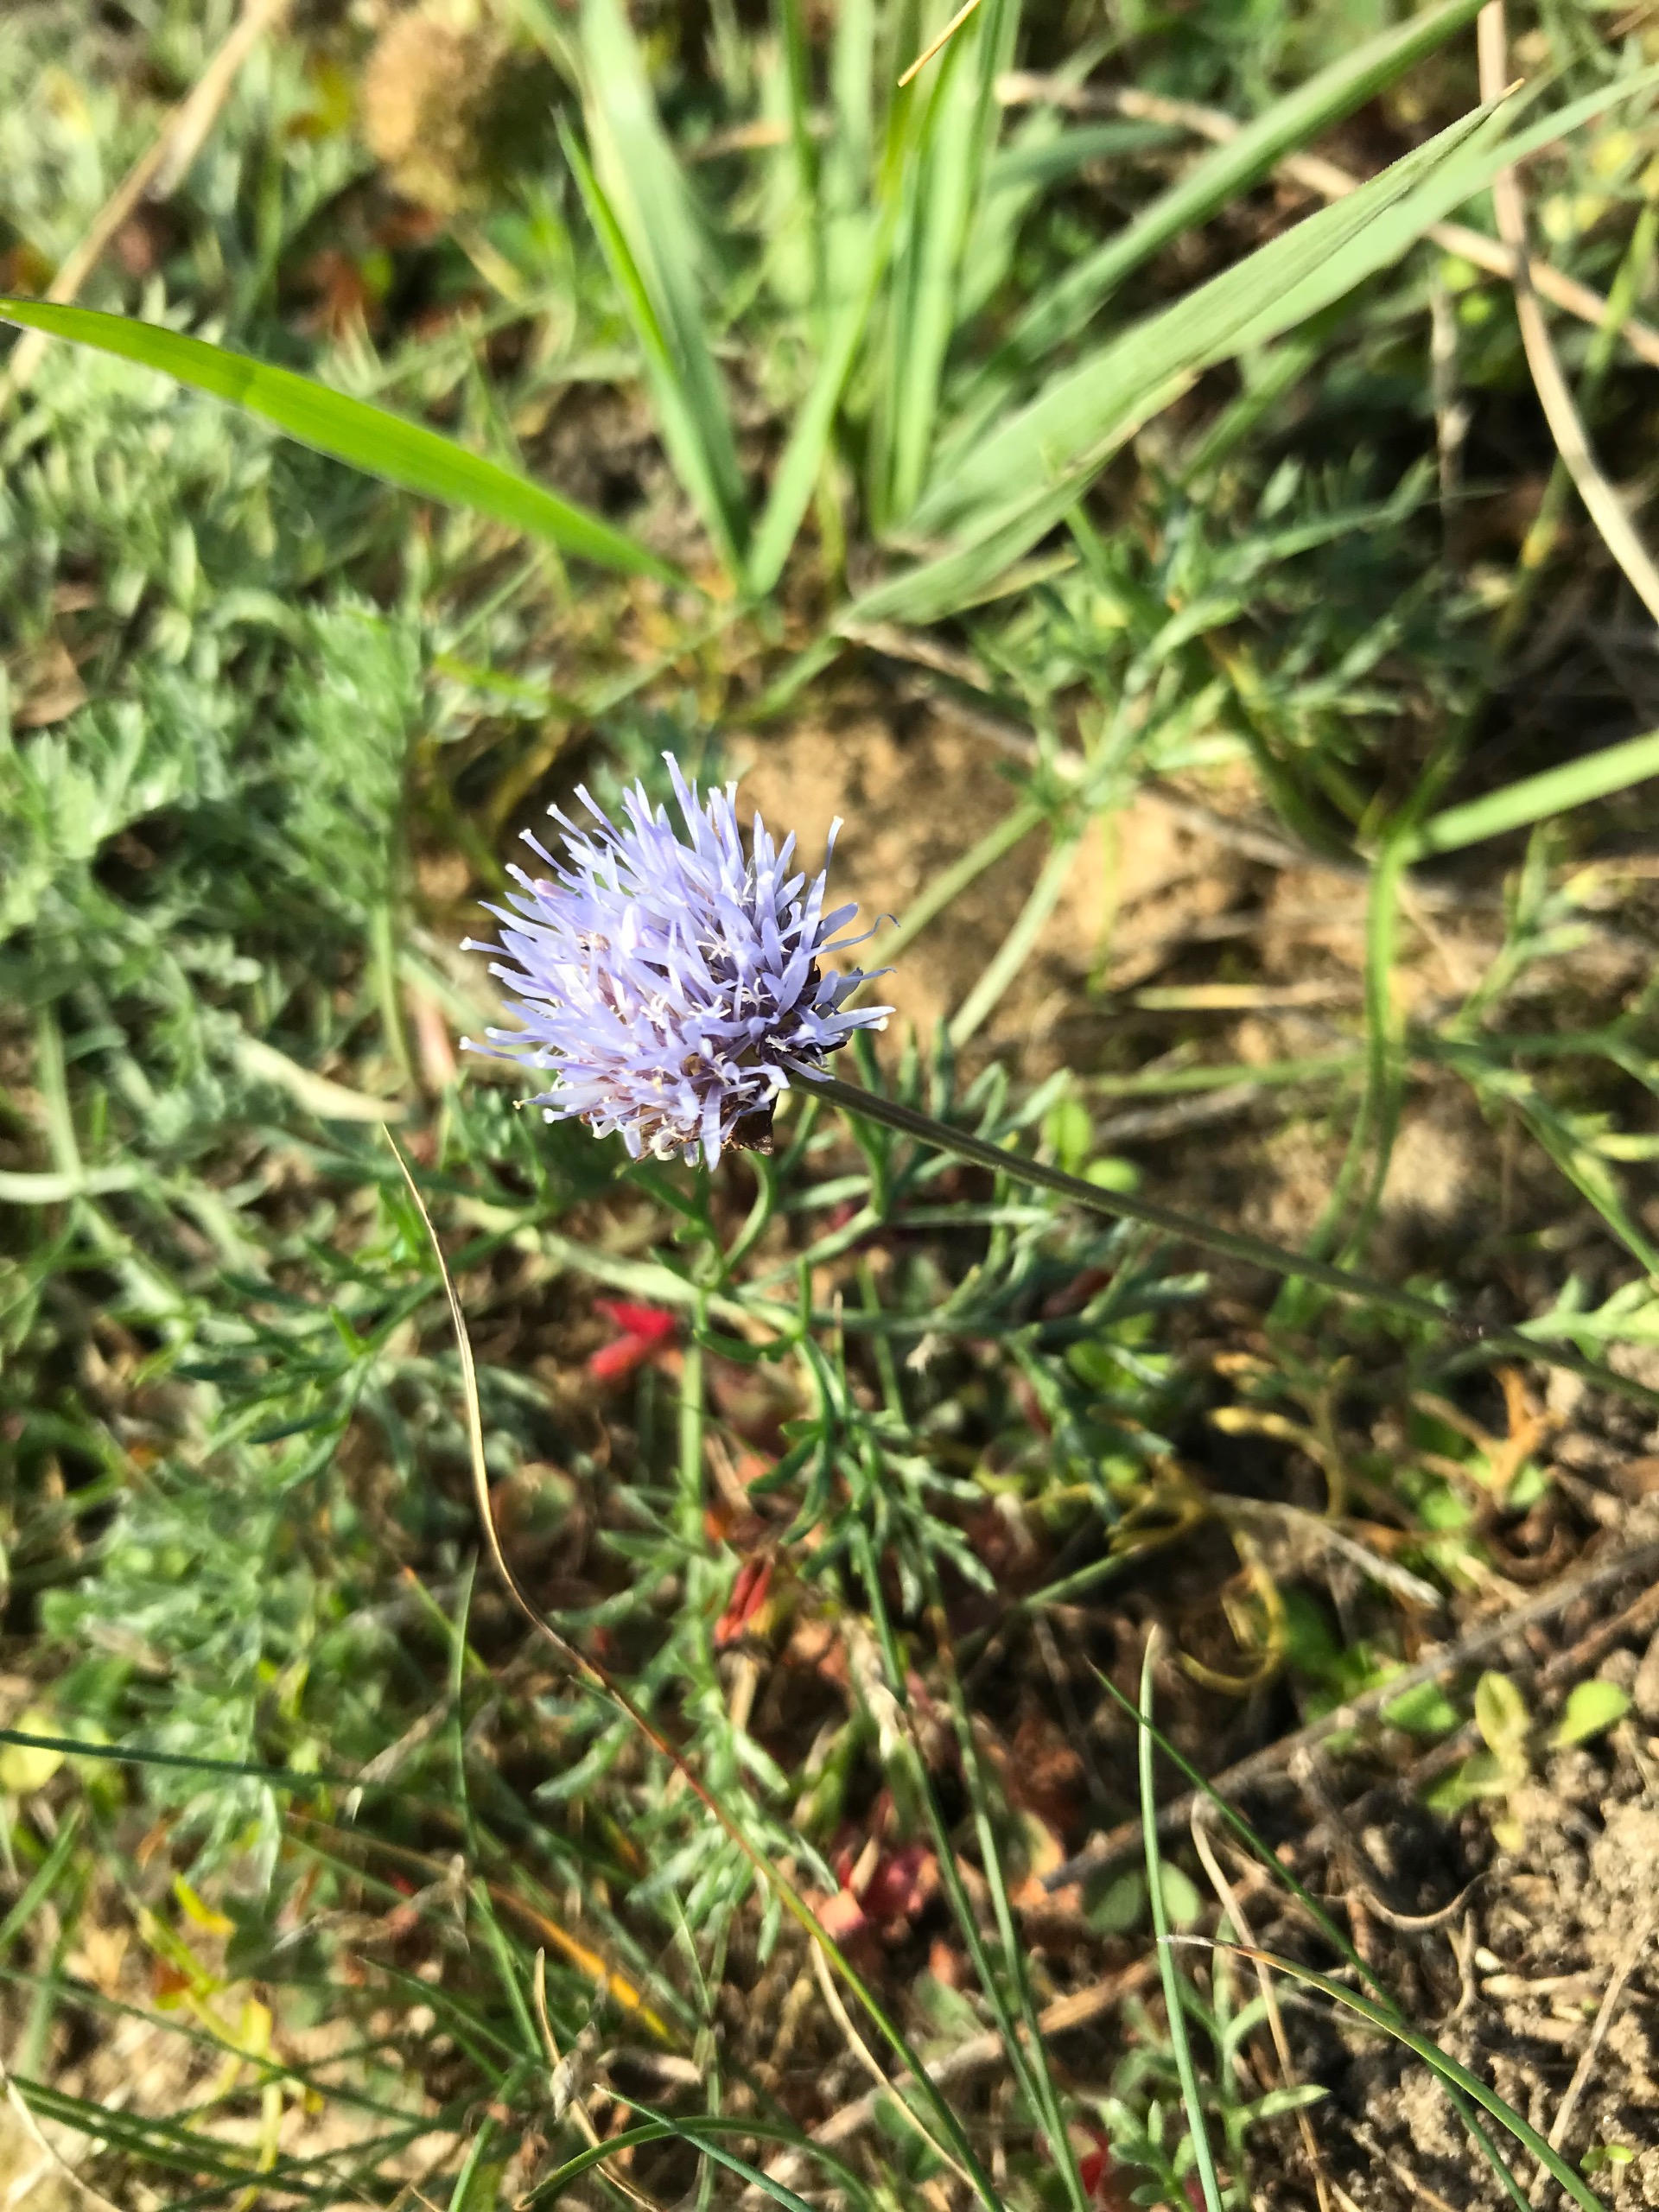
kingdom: Plantae
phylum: Tracheophyta
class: Magnoliopsida
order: Asterales
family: Campanulaceae
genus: Jasione
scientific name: Jasione montana
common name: Blåmunke
